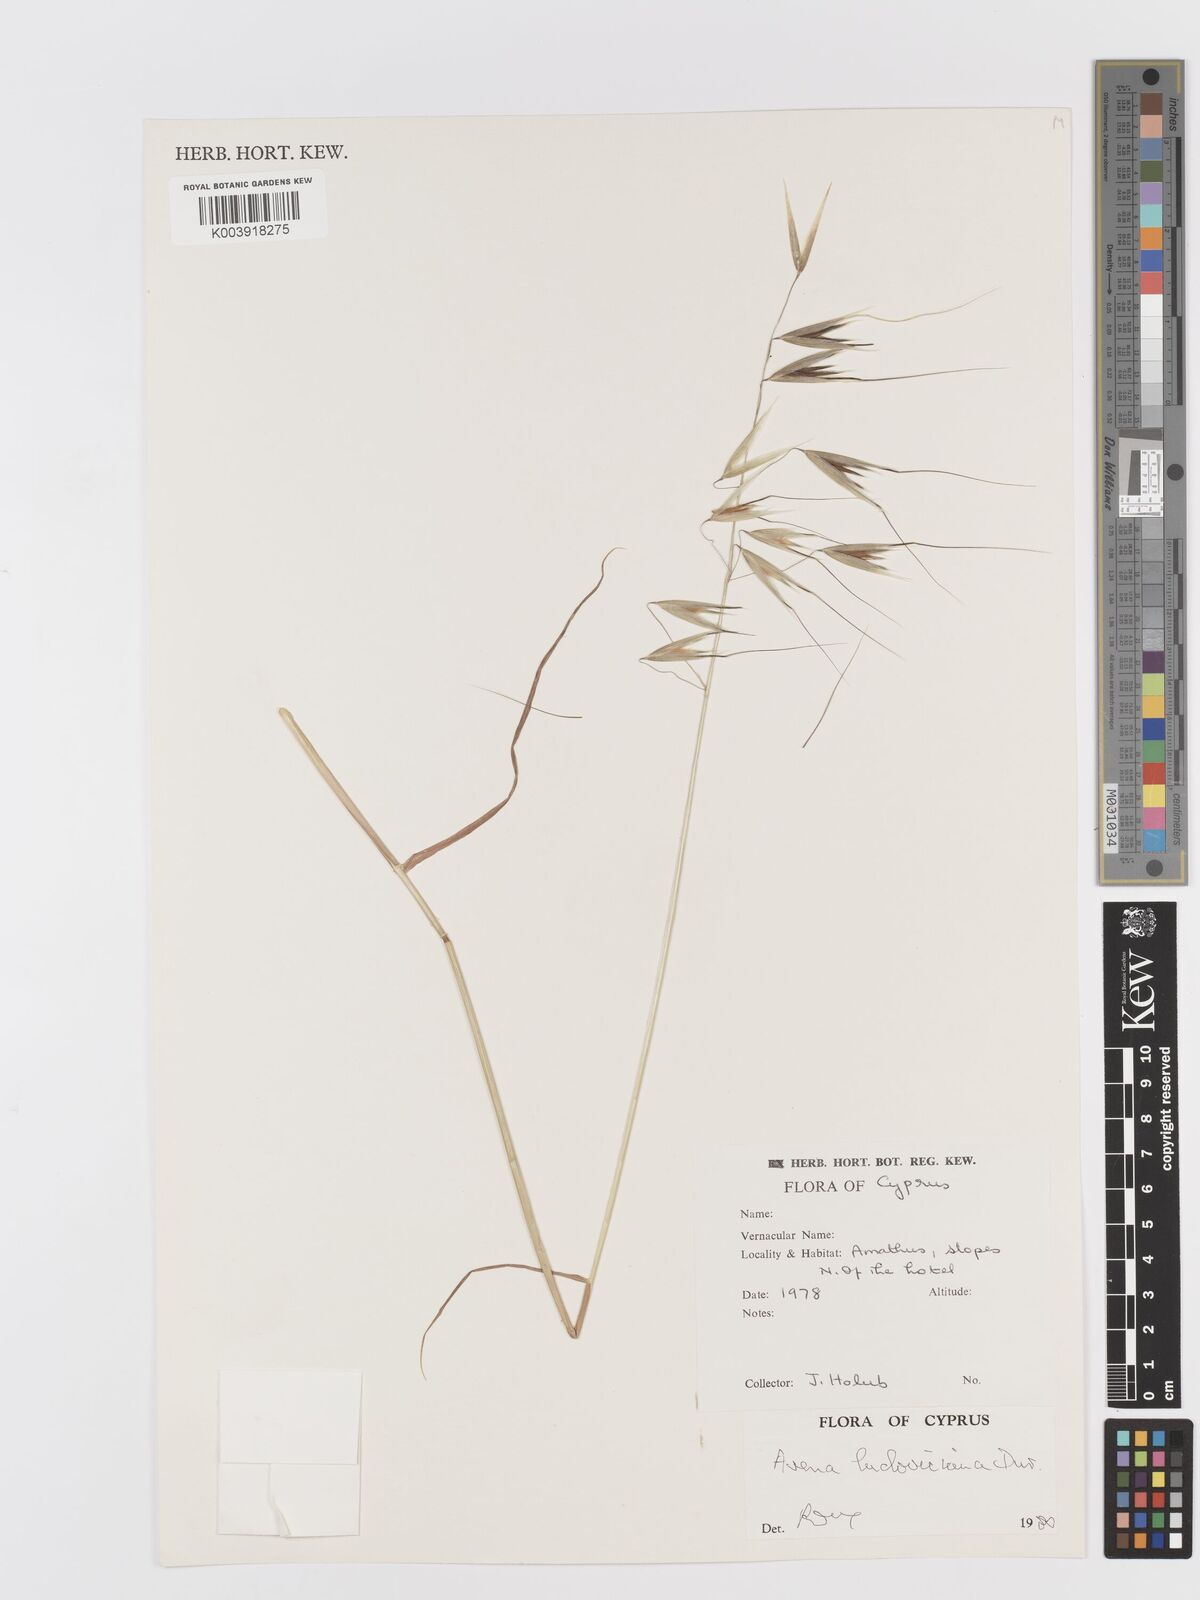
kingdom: Plantae
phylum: Tracheophyta
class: Liliopsida
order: Poales
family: Poaceae
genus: Avena
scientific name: Avena sterilis
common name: Animated oat
